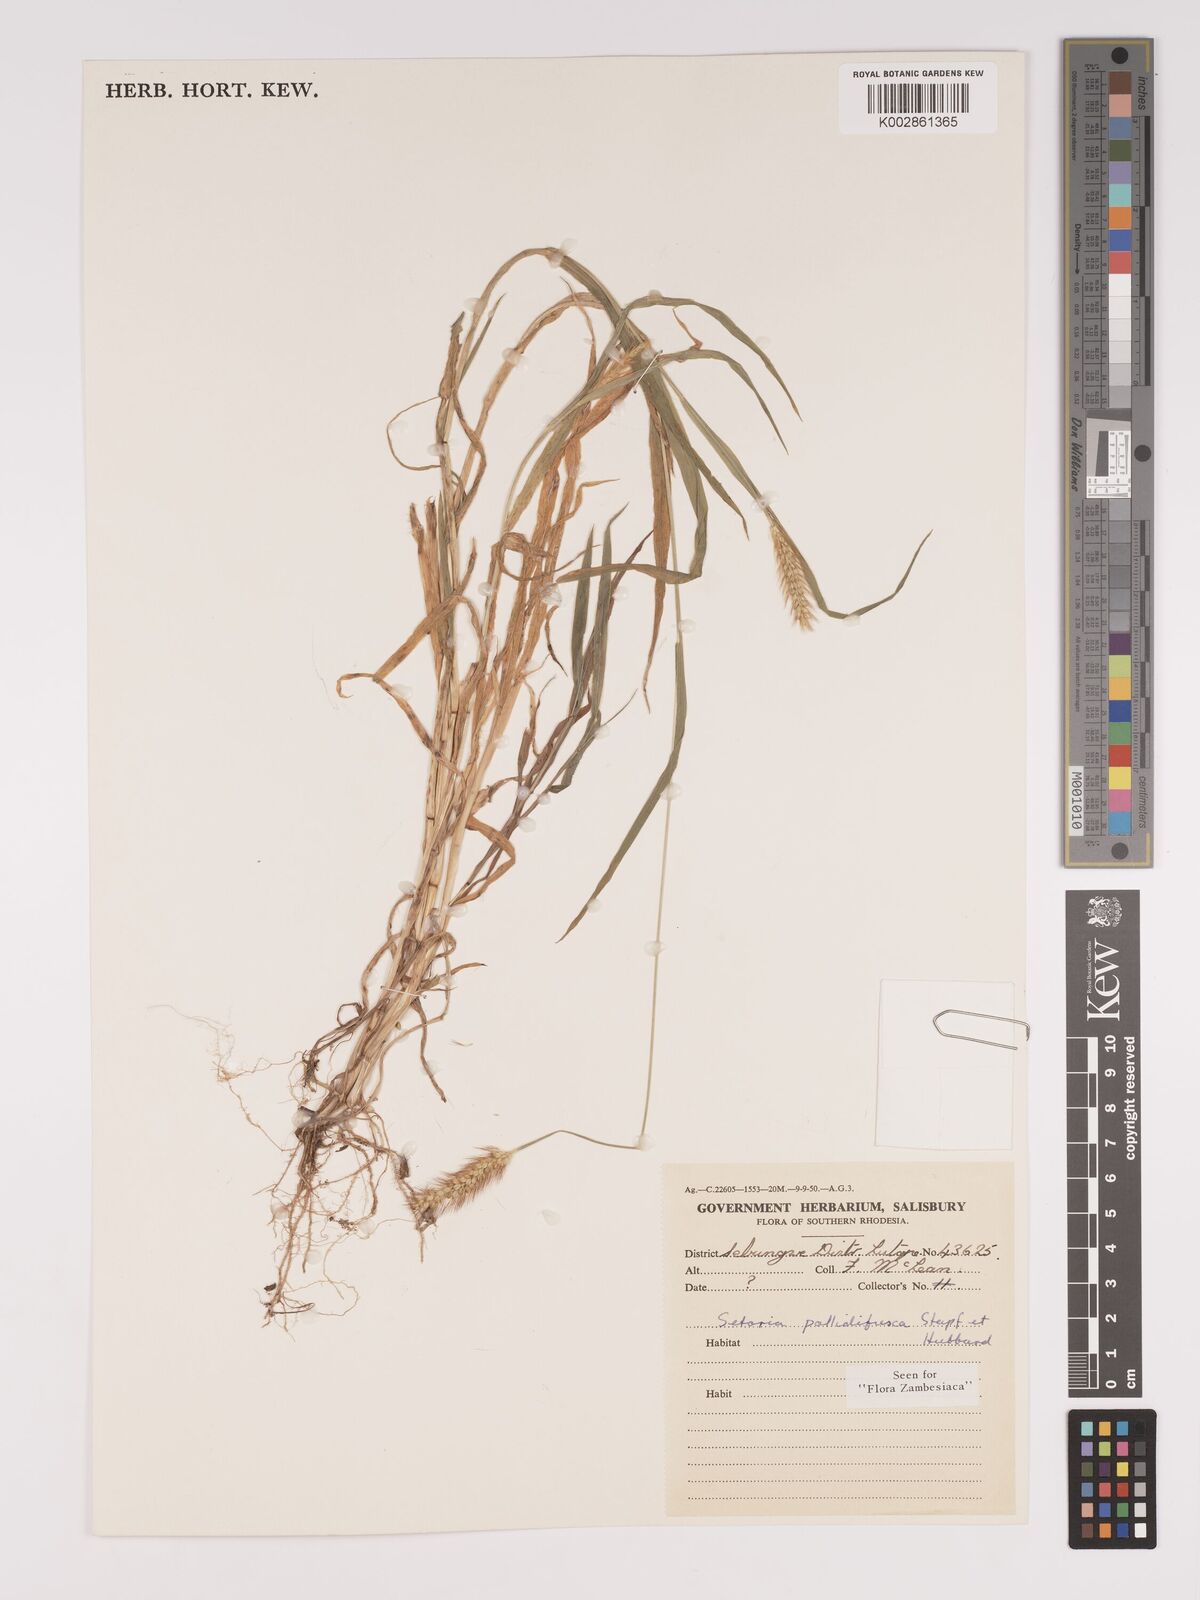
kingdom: Plantae
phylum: Tracheophyta
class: Liliopsida
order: Poales
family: Poaceae
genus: Setaria
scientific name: Setaria pumila
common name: Yellow bristle-grass
